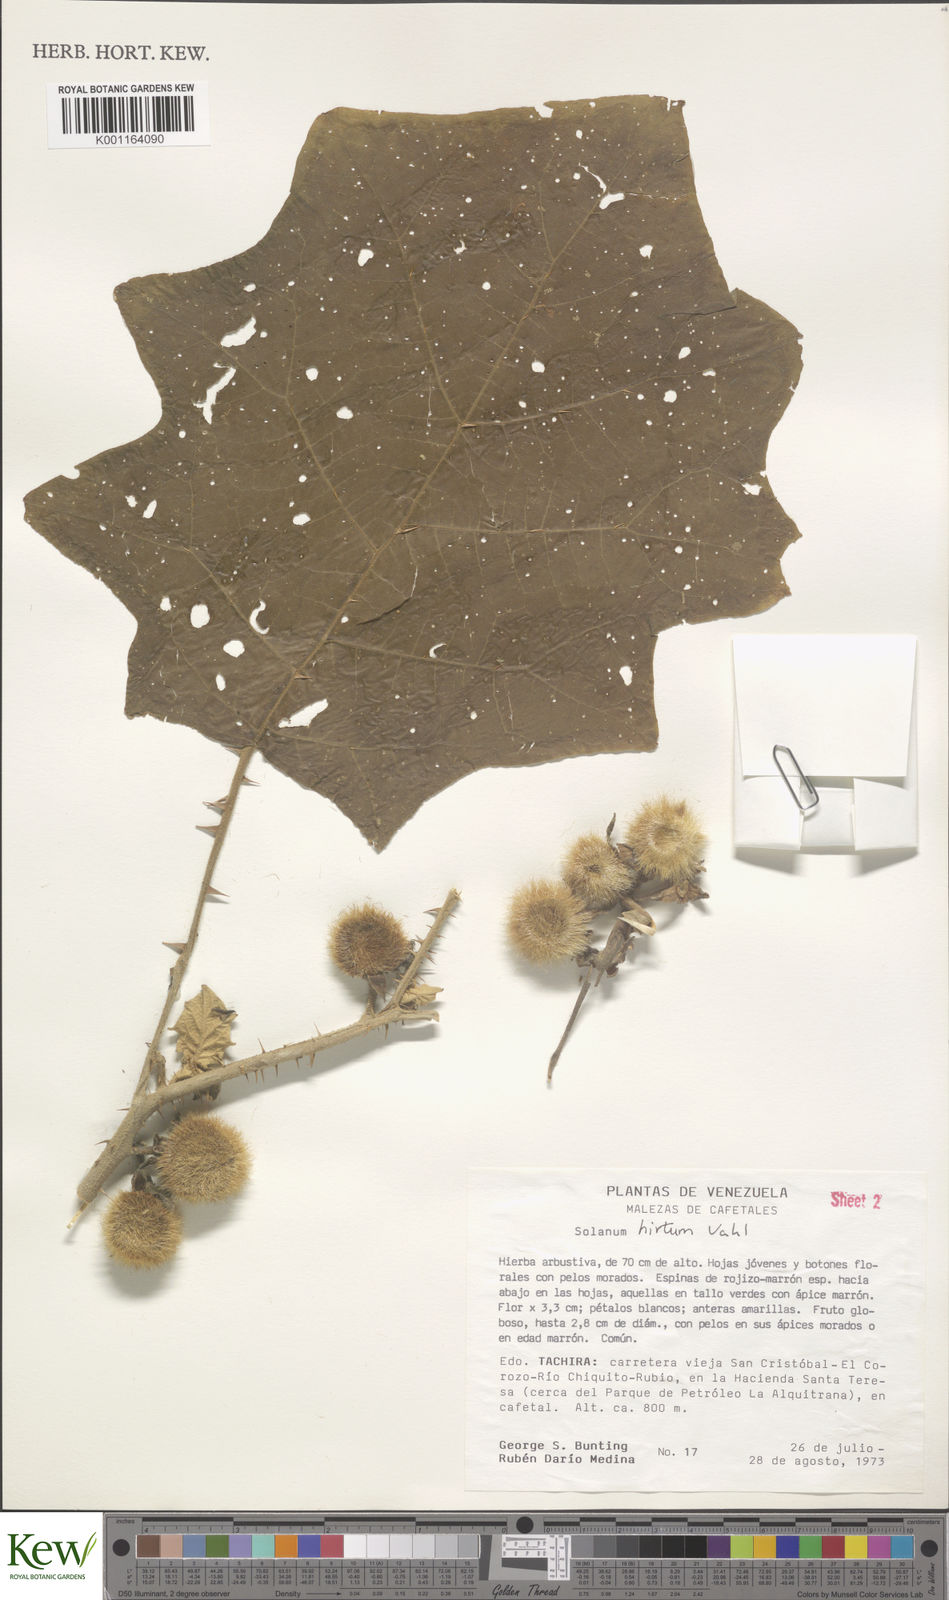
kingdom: Plantae
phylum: Tracheophyta
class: Magnoliopsida
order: Solanales
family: Solanaceae
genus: Solanum
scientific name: Solanum hirtum
